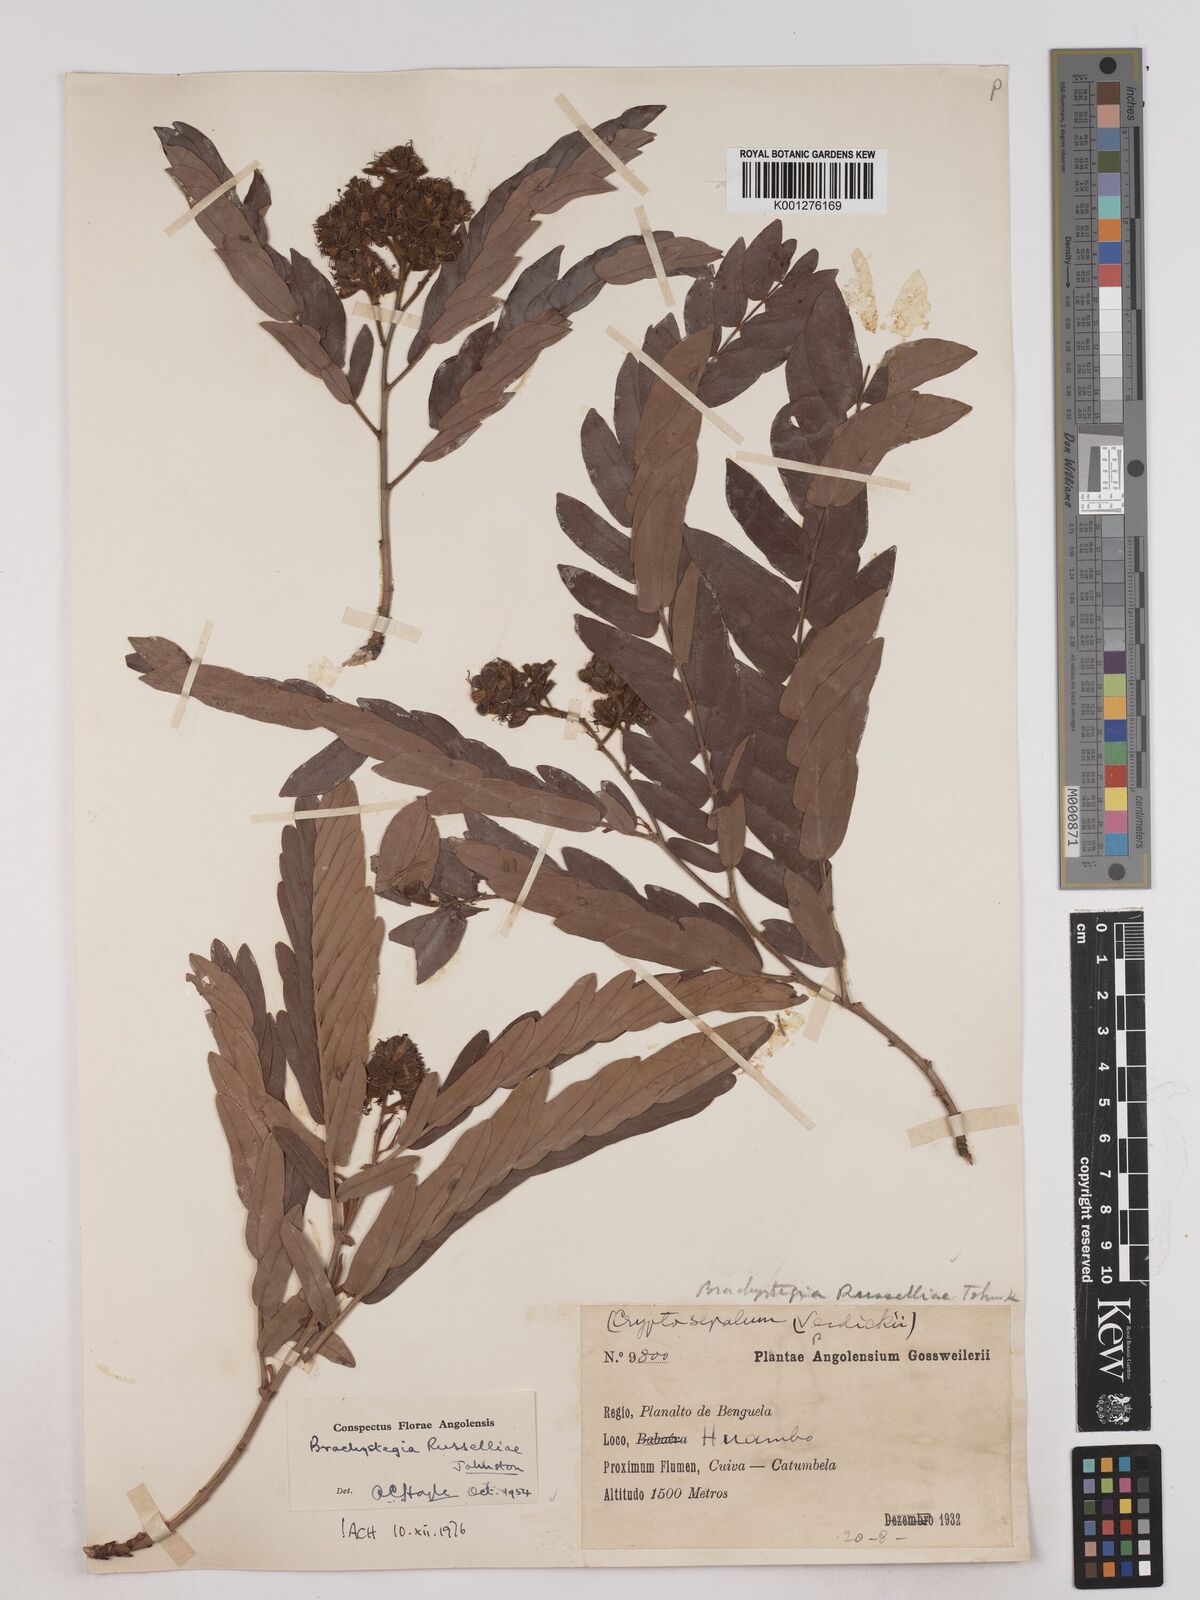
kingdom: Plantae
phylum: Tracheophyta
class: Magnoliopsida
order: Fabales
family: Fabaceae
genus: Brachystegia
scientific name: Brachystegia russelliae
